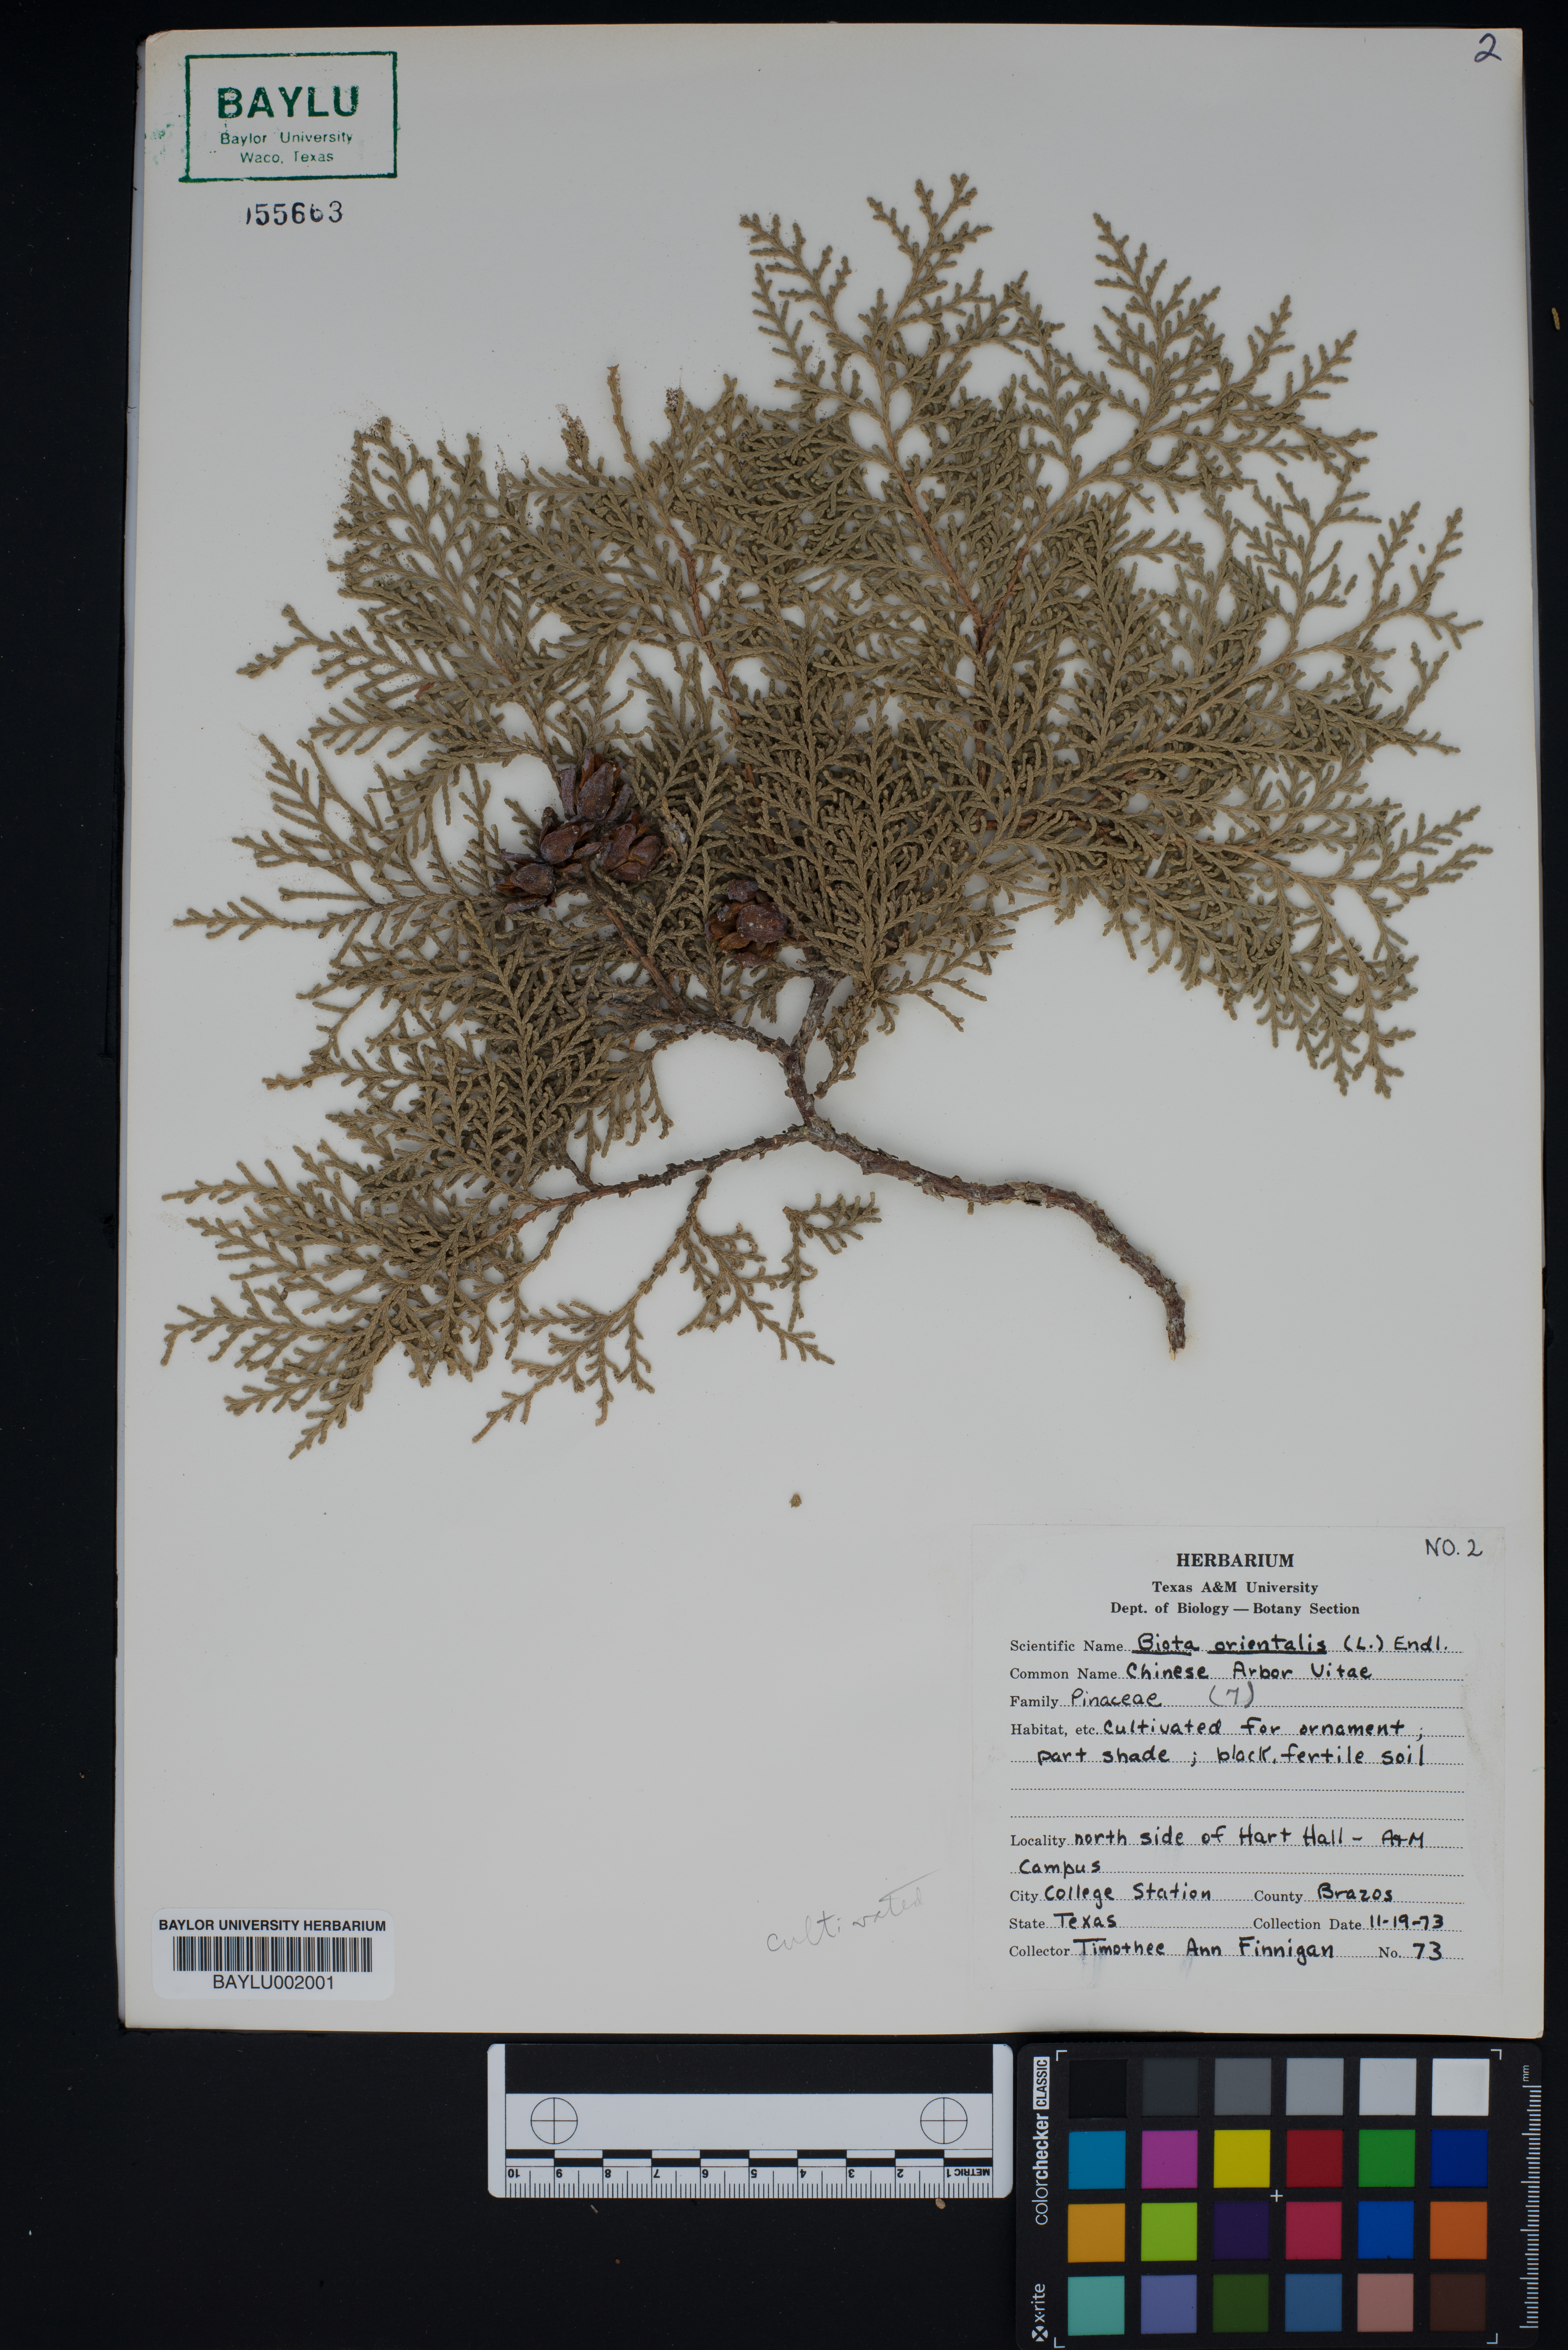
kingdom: Plantae
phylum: Tracheophyta
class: Pinopsida
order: Pinales
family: Cupressaceae
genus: Platycladus
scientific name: Platycladus orientalis
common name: Chinese thuja
